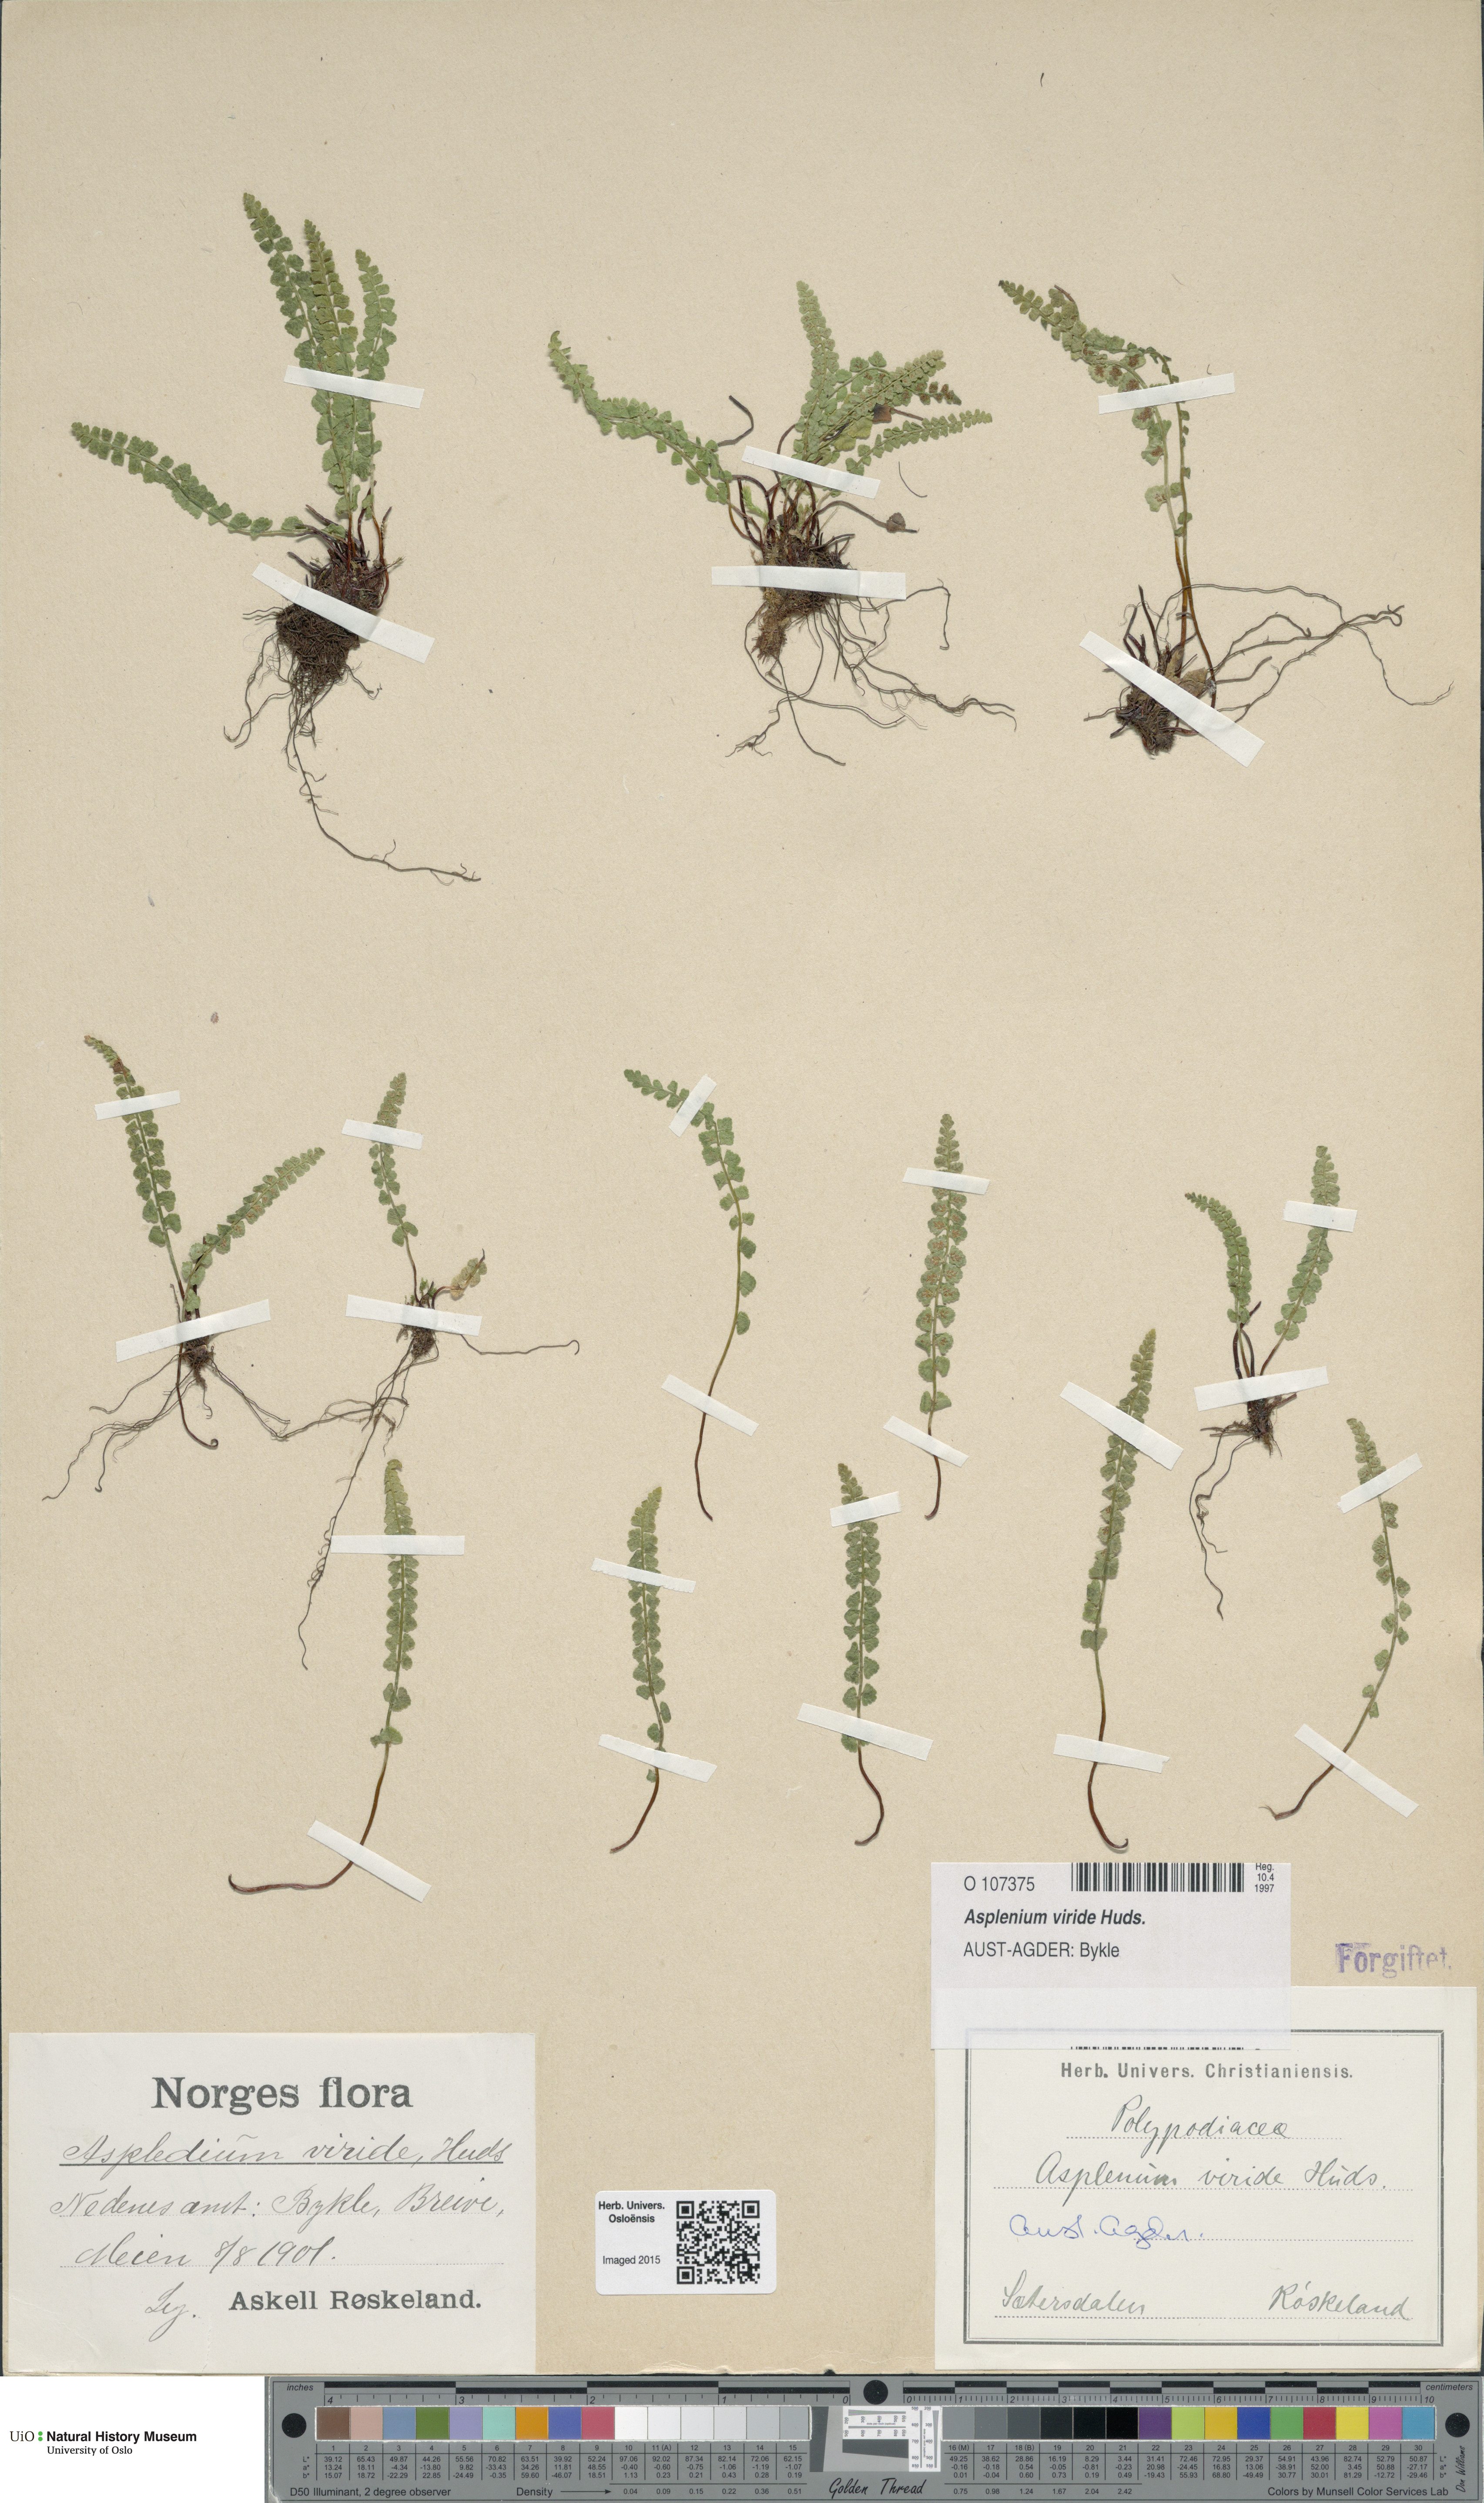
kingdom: Plantae
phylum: Tracheophyta
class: Polypodiopsida
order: Polypodiales
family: Aspleniaceae
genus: Asplenium
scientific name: Asplenium viride
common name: Green spleenwort
